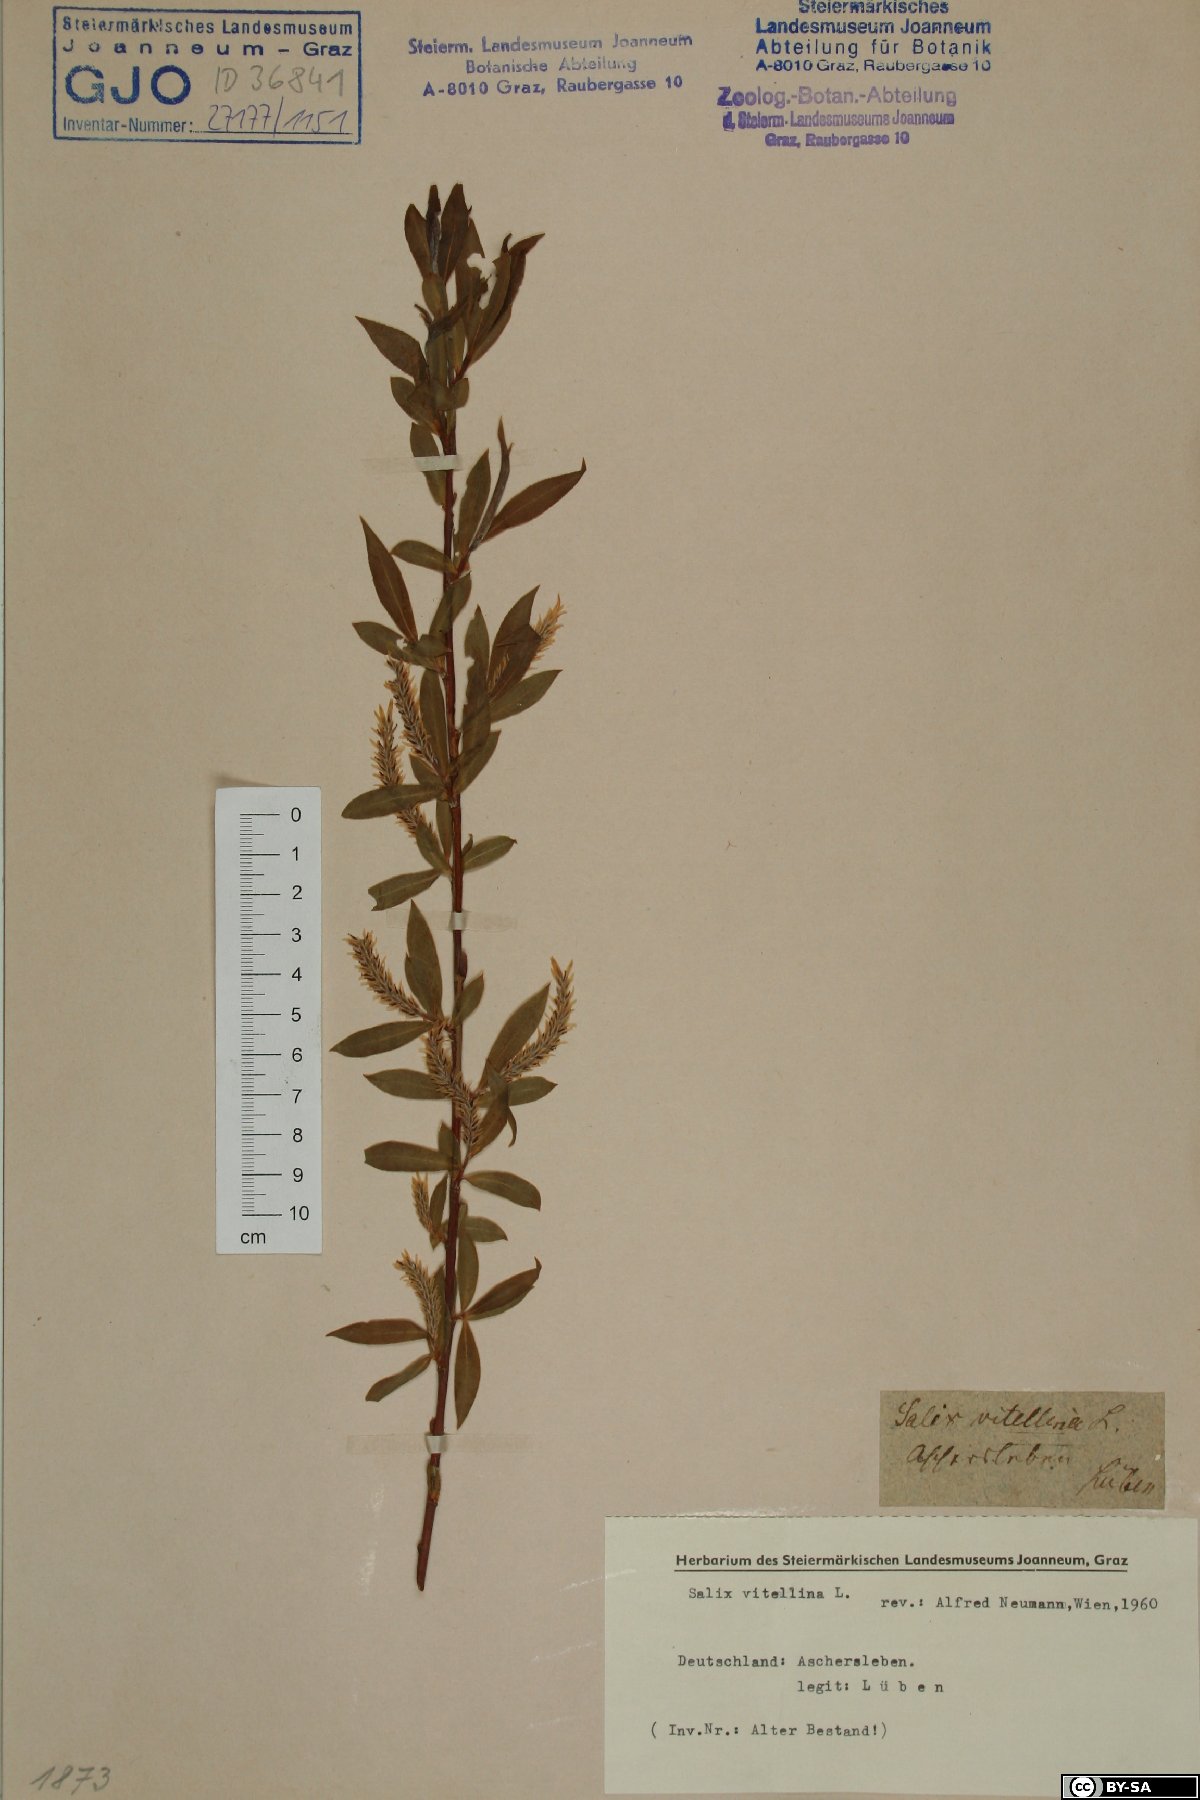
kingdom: Plantae
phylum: Tracheophyta
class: Magnoliopsida
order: Malpighiales
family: Salicaceae
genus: Salix
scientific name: Salix alba
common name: White willow
